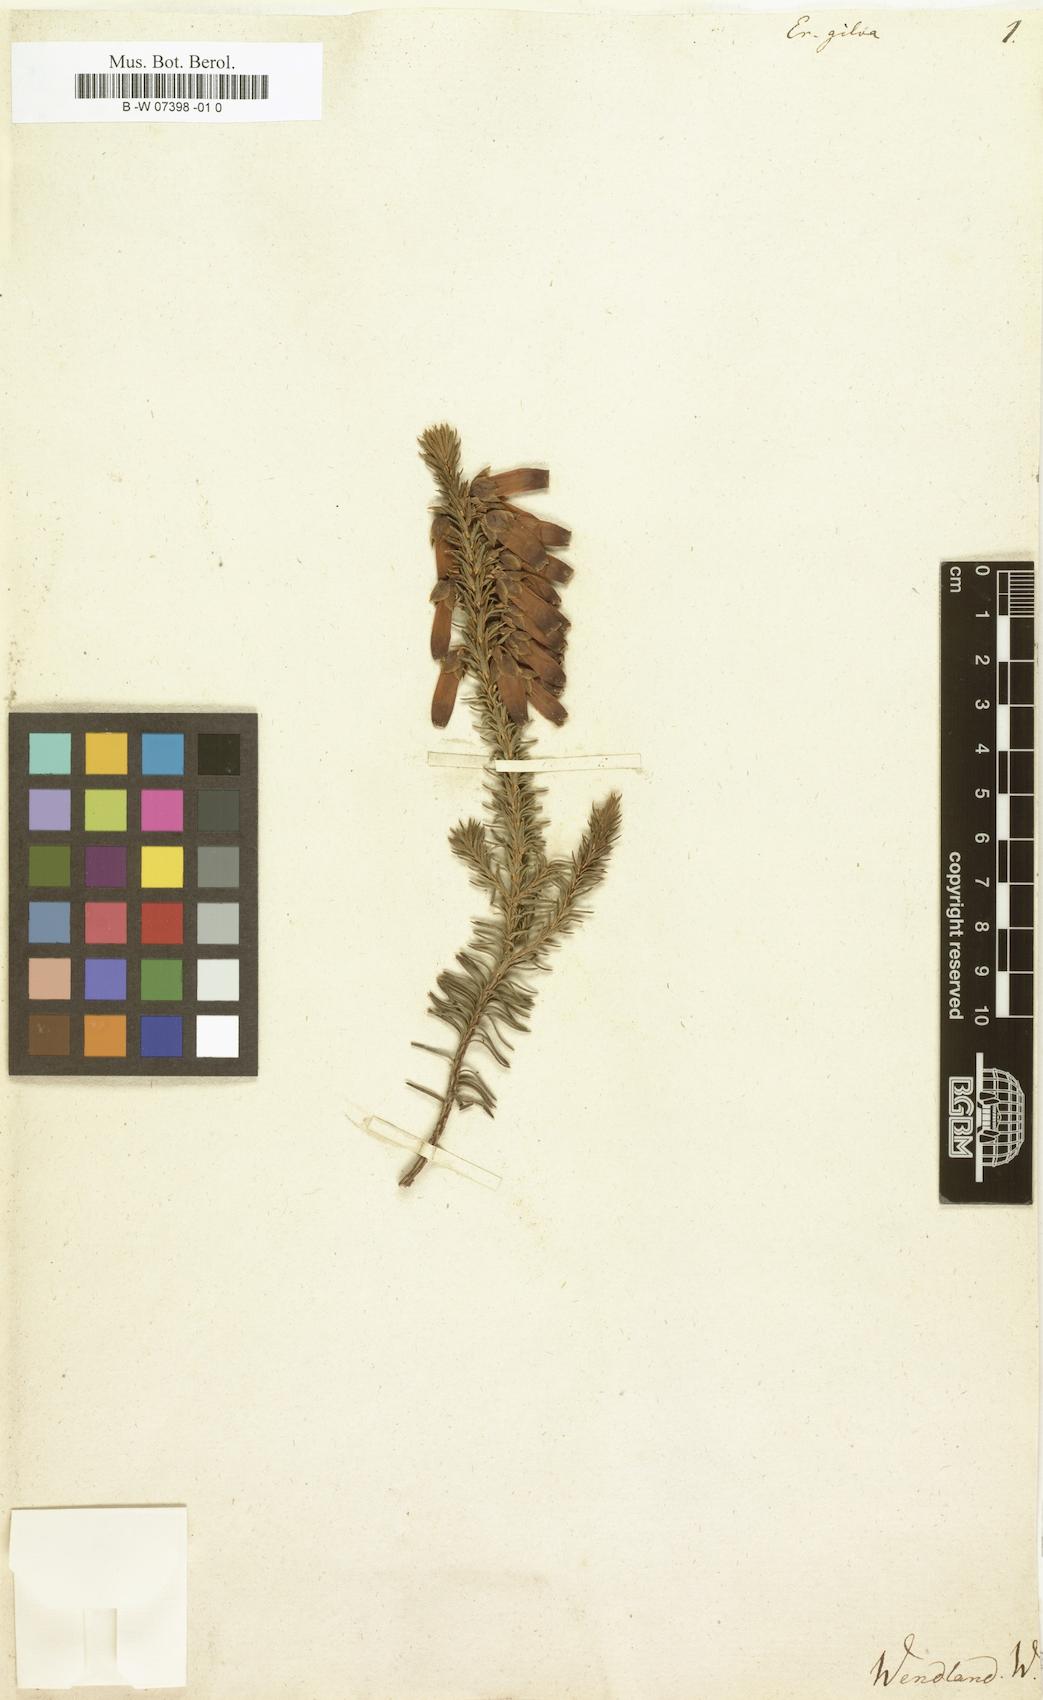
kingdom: Plantae
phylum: Tracheophyta
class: Magnoliopsida
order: Ericales
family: Ericaceae
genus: Erica
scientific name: Erica mammosa
